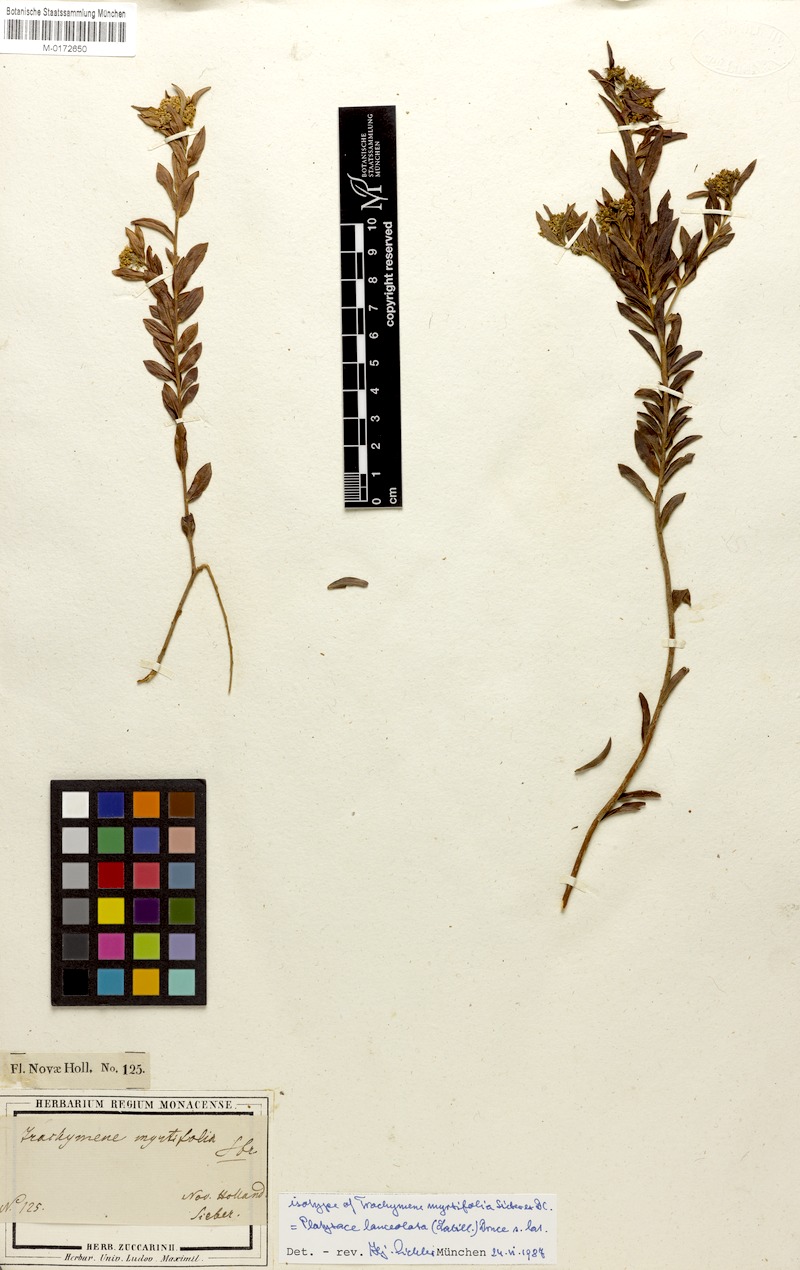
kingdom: Plantae
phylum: Tracheophyta
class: Magnoliopsida
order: Apiales
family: Apiaceae
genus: Platysace
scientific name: Platysace lanceolata
